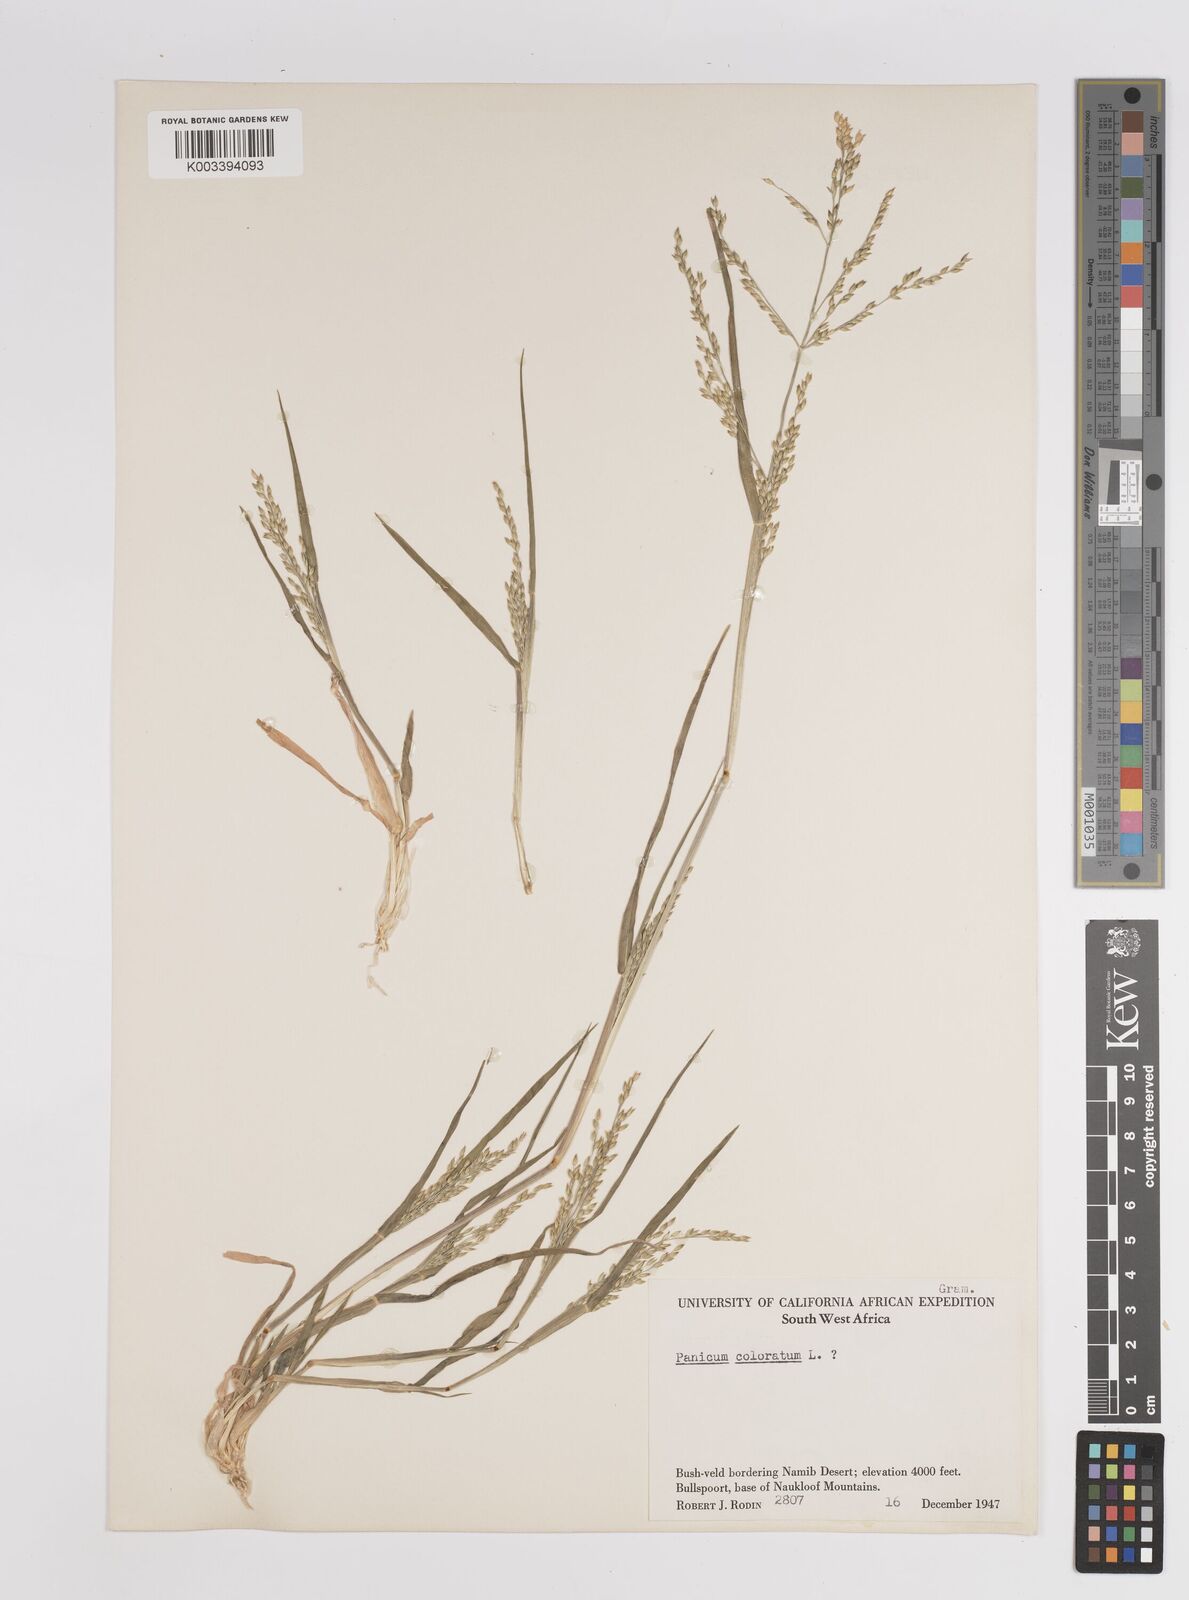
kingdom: Plantae
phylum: Tracheophyta
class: Liliopsida
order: Poales
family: Poaceae
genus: Panicum
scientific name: Panicum impeditum
